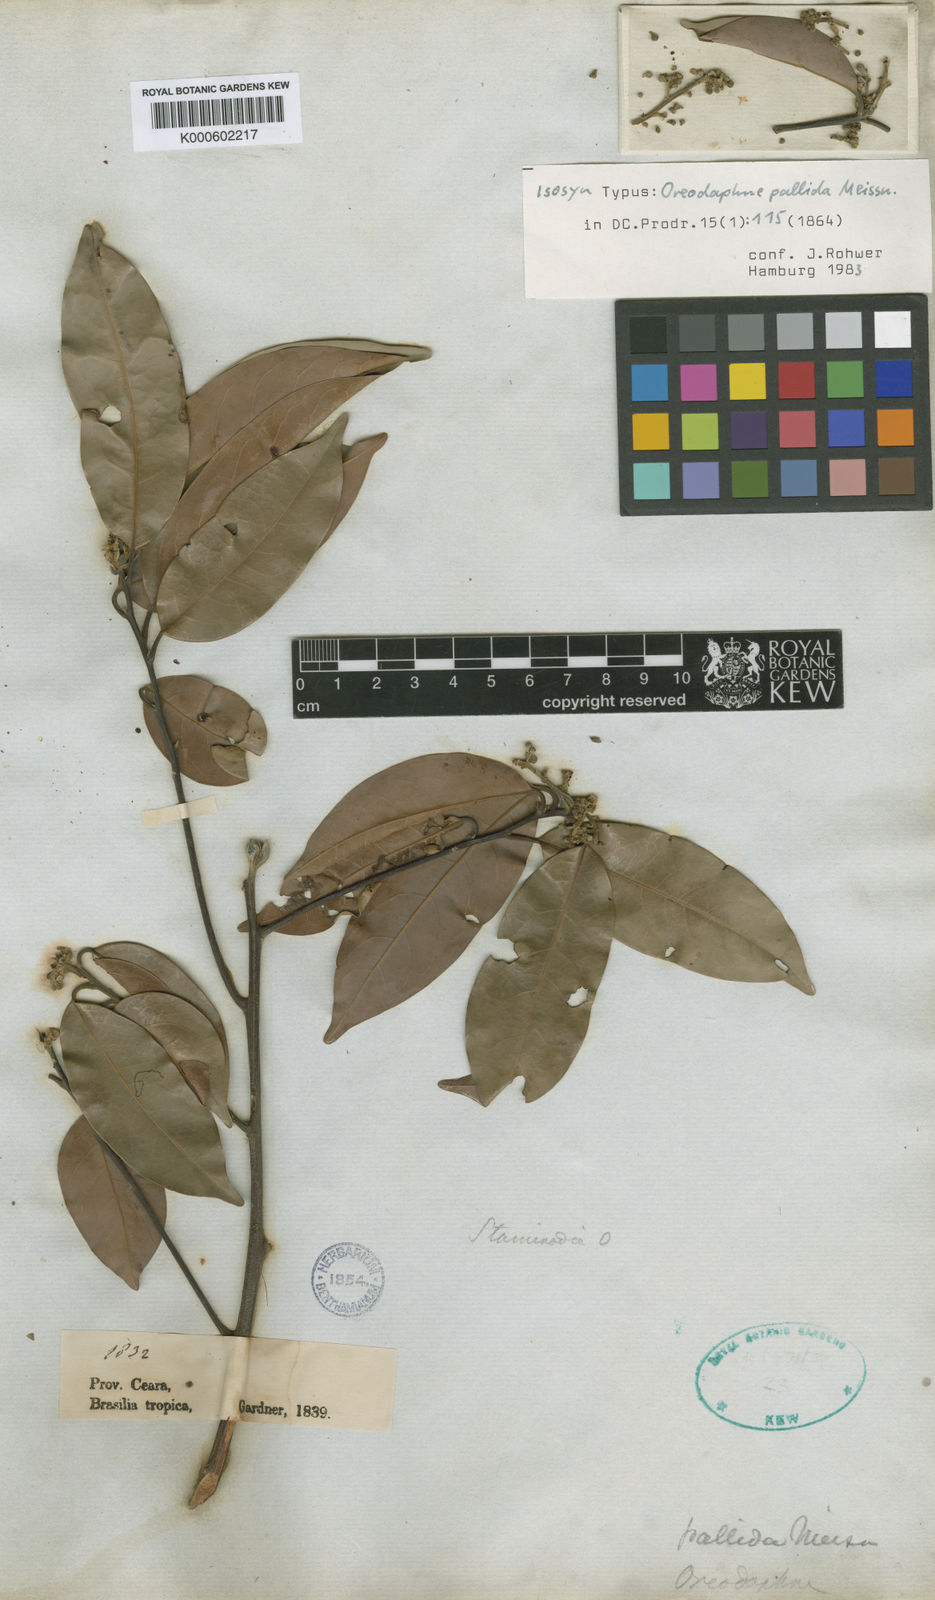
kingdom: Plantae
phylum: Tracheophyta
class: Magnoliopsida
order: Laurales
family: Lauraceae
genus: Ocotea
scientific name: Ocotea nitida
